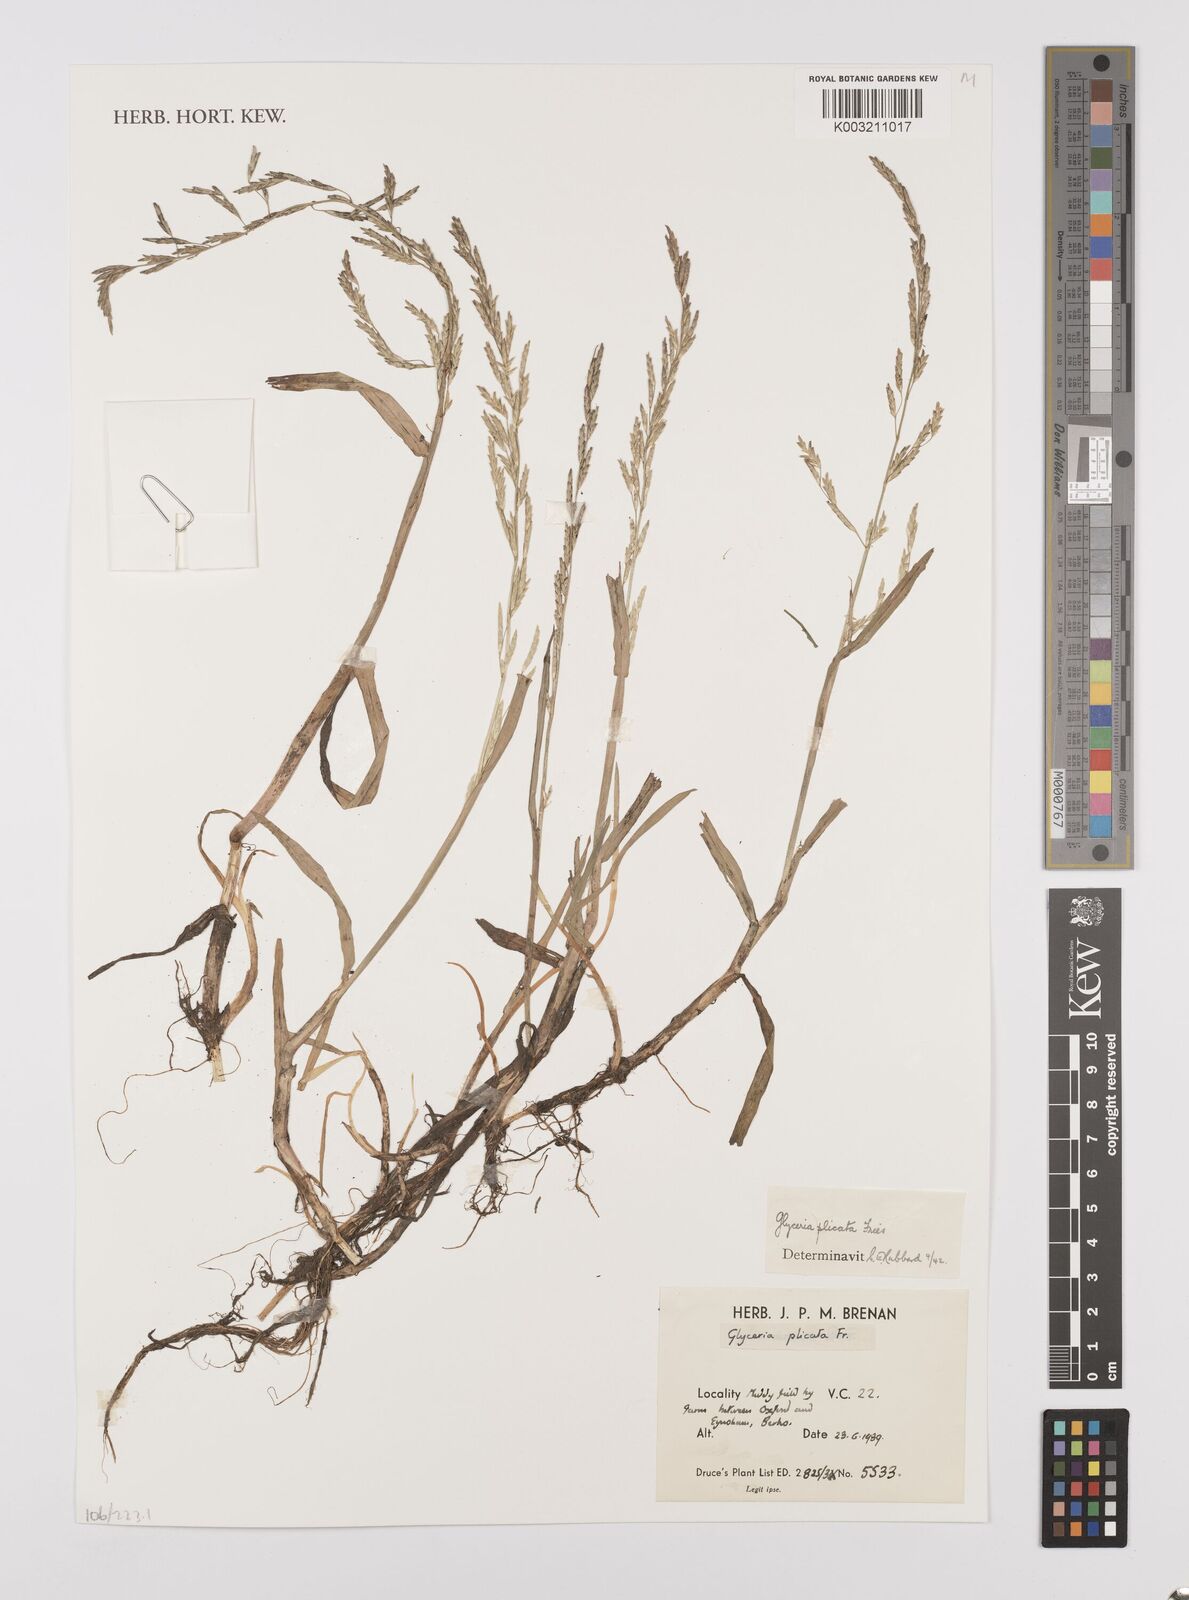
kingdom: Plantae
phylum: Tracheophyta
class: Liliopsida
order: Poales
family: Poaceae
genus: Glyceria
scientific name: Glyceria notata
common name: Plicate sweet-grass
